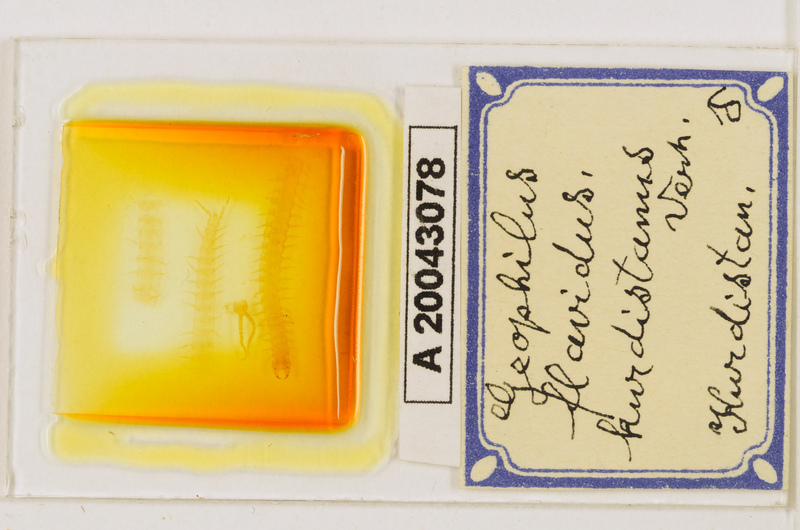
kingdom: Animalia
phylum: Arthropoda
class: Chilopoda
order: Geophilomorpha
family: Geophilidae
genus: Clinopodes
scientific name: Clinopodes flavidus
